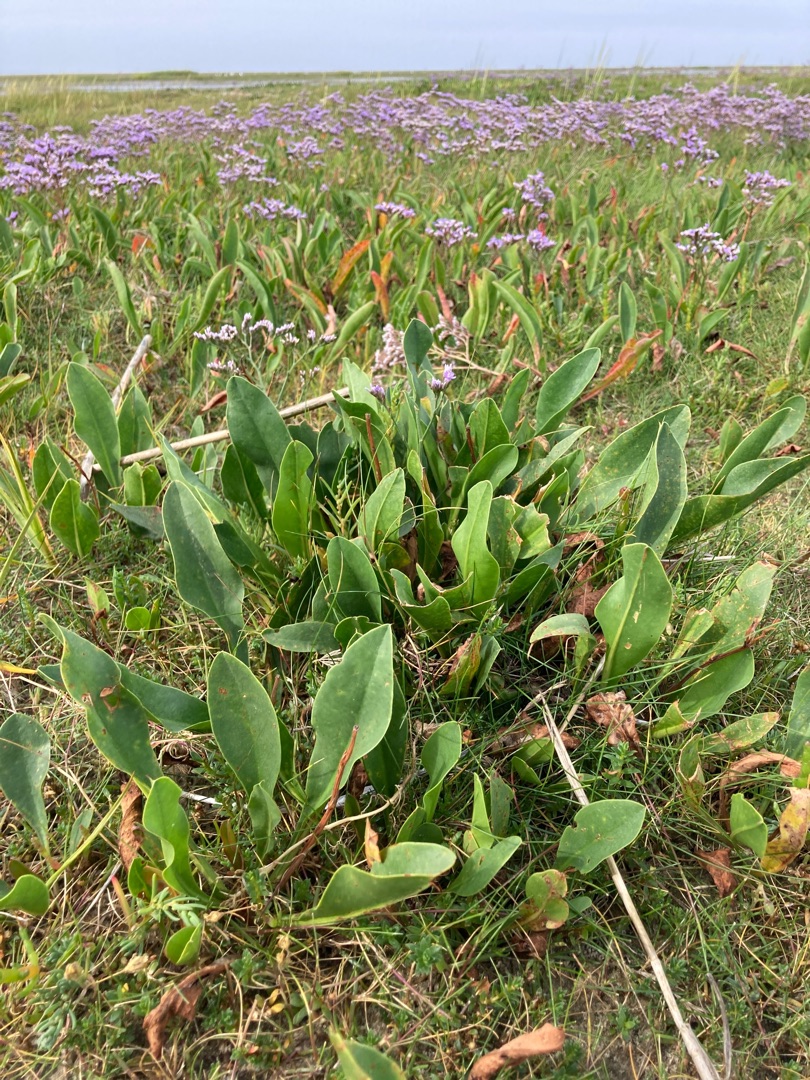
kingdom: Plantae
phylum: Tracheophyta
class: Magnoliopsida
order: Caryophyllales
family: Plumbaginaceae
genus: Limonium
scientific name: Limonium vulgare
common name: Tætblomstret hindebæger
